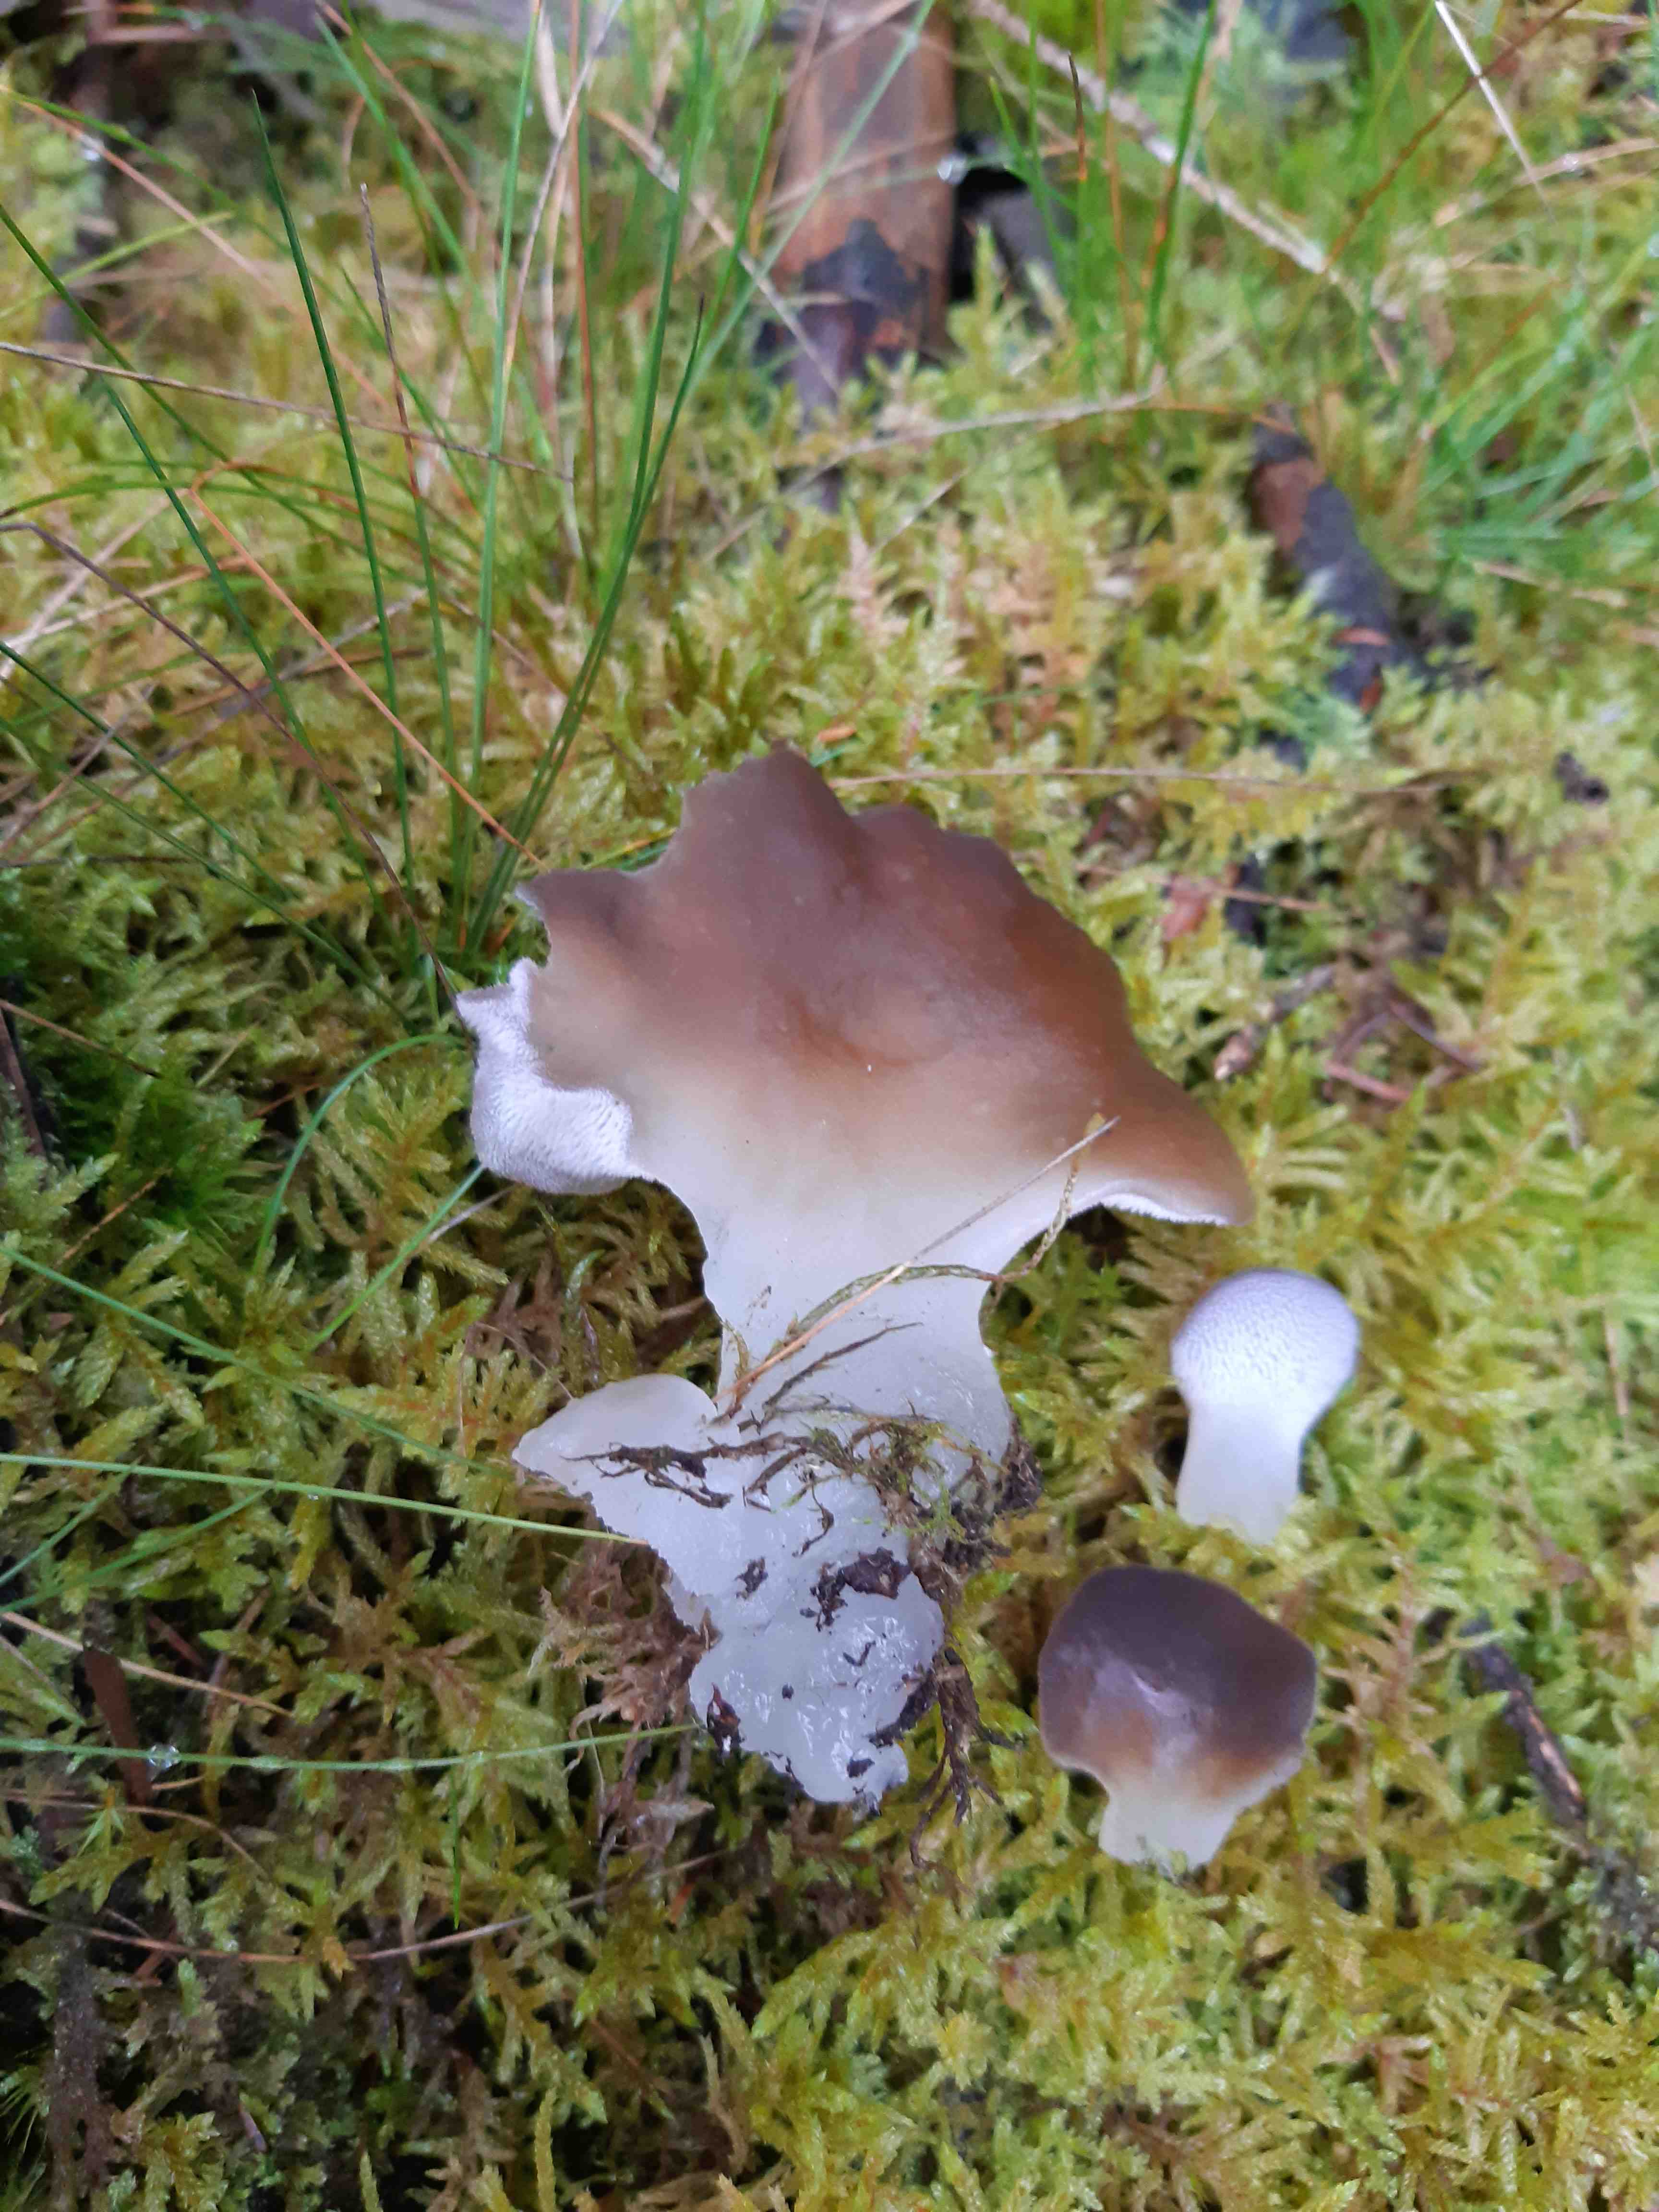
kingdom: Fungi
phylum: Basidiomycota
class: Agaricomycetes
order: Auriculariales
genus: Pseudohydnum
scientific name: Pseudohydnum gelatinosum
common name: bævretand
